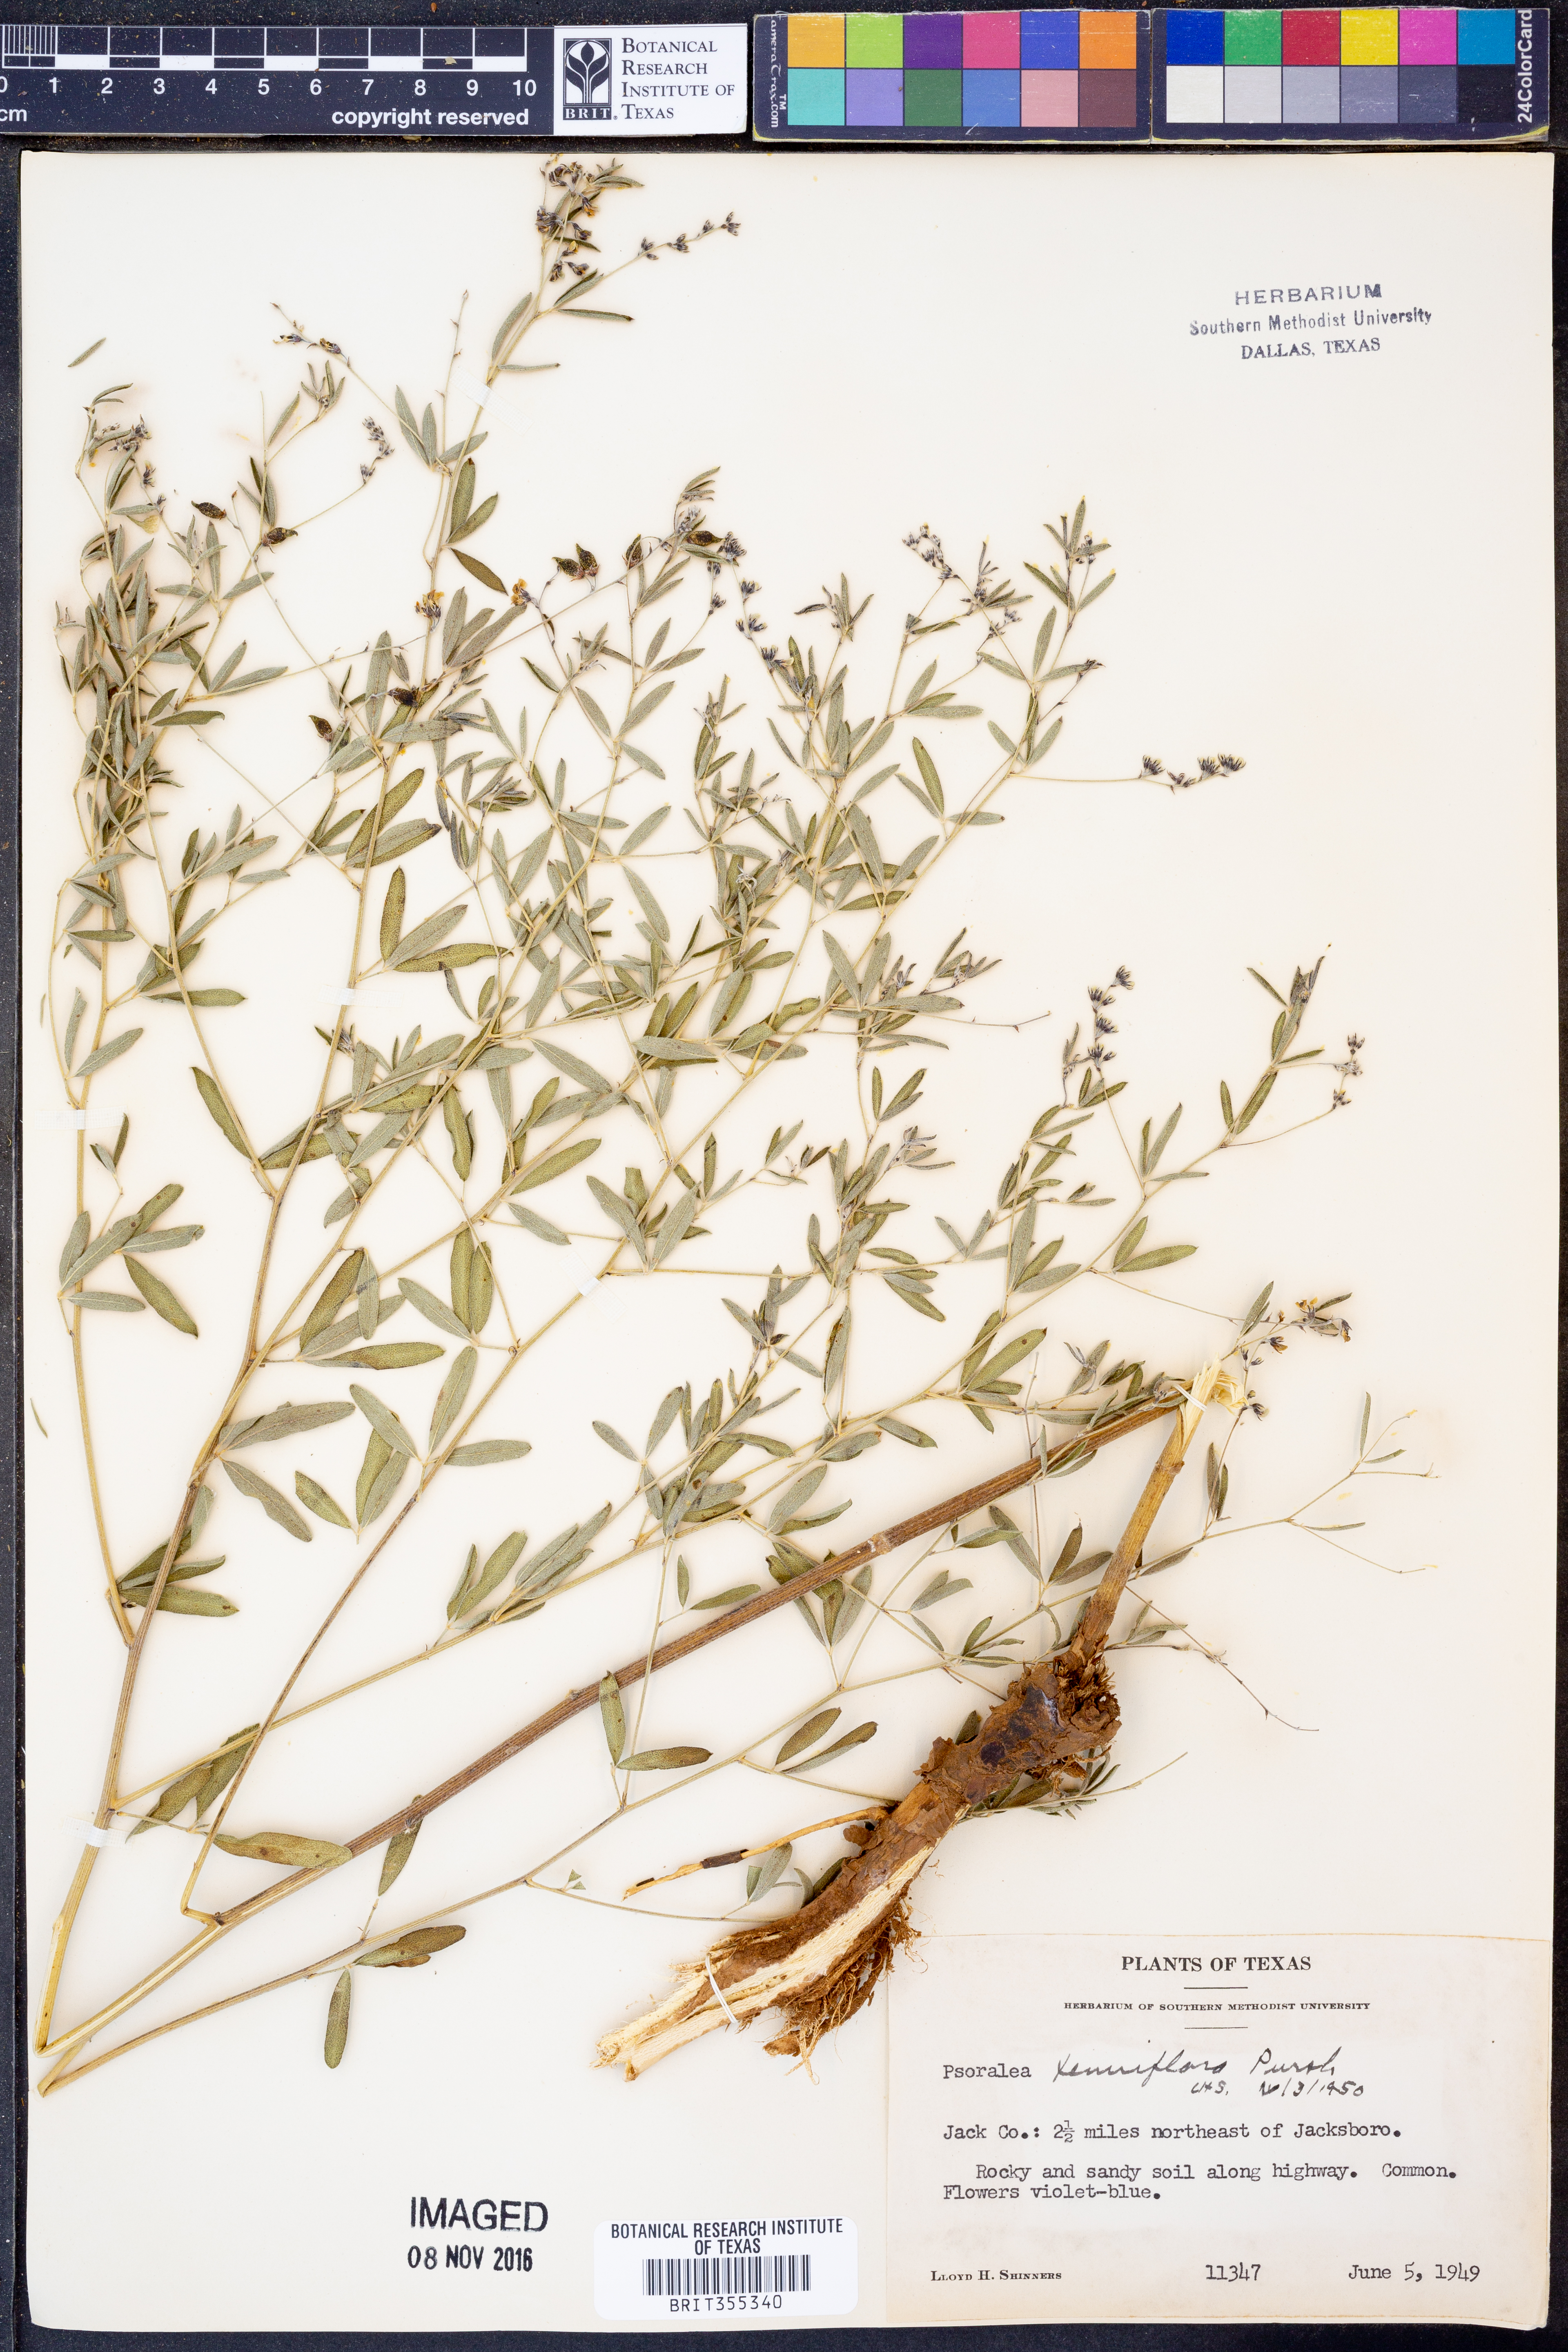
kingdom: Plantae
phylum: Tracheophyta
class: Magnoliopsida
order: Fabales
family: Fabaceae
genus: Pediomelum
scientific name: Pediomelum tenuiflorum
